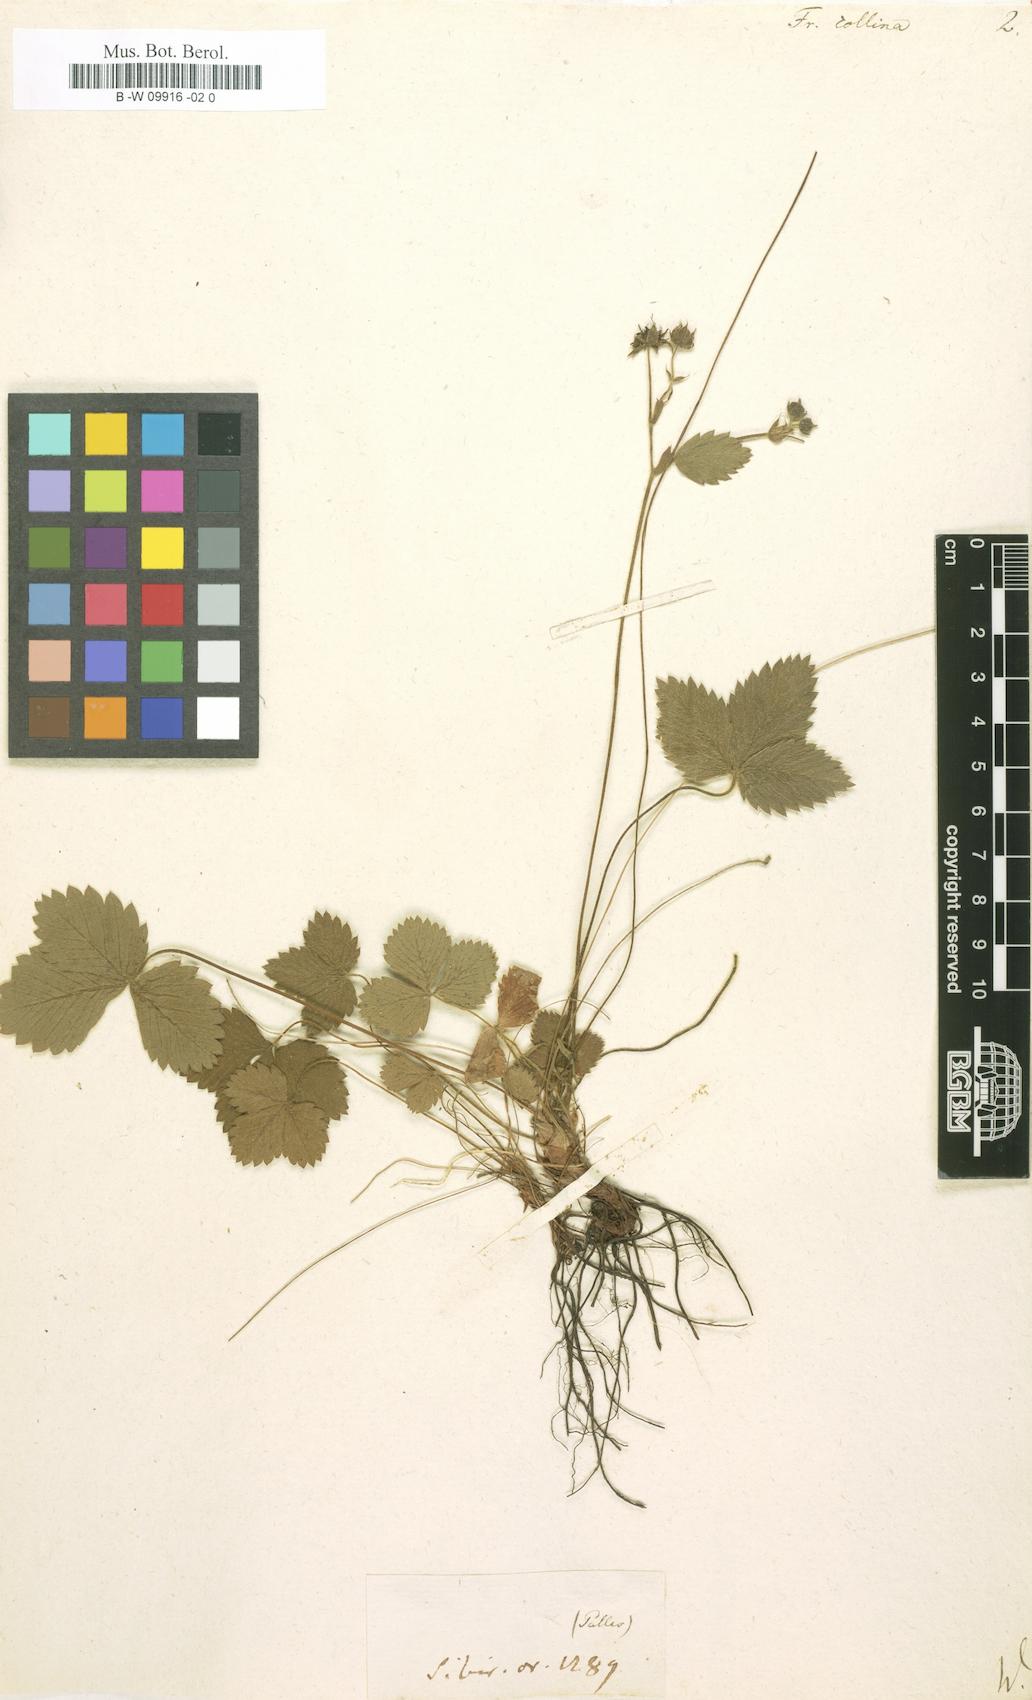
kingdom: Plantae
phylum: Tracheophyta
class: Magnoliopsida
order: Rosales
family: Rosaceae
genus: Fragaria
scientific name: Fragaria viridis
